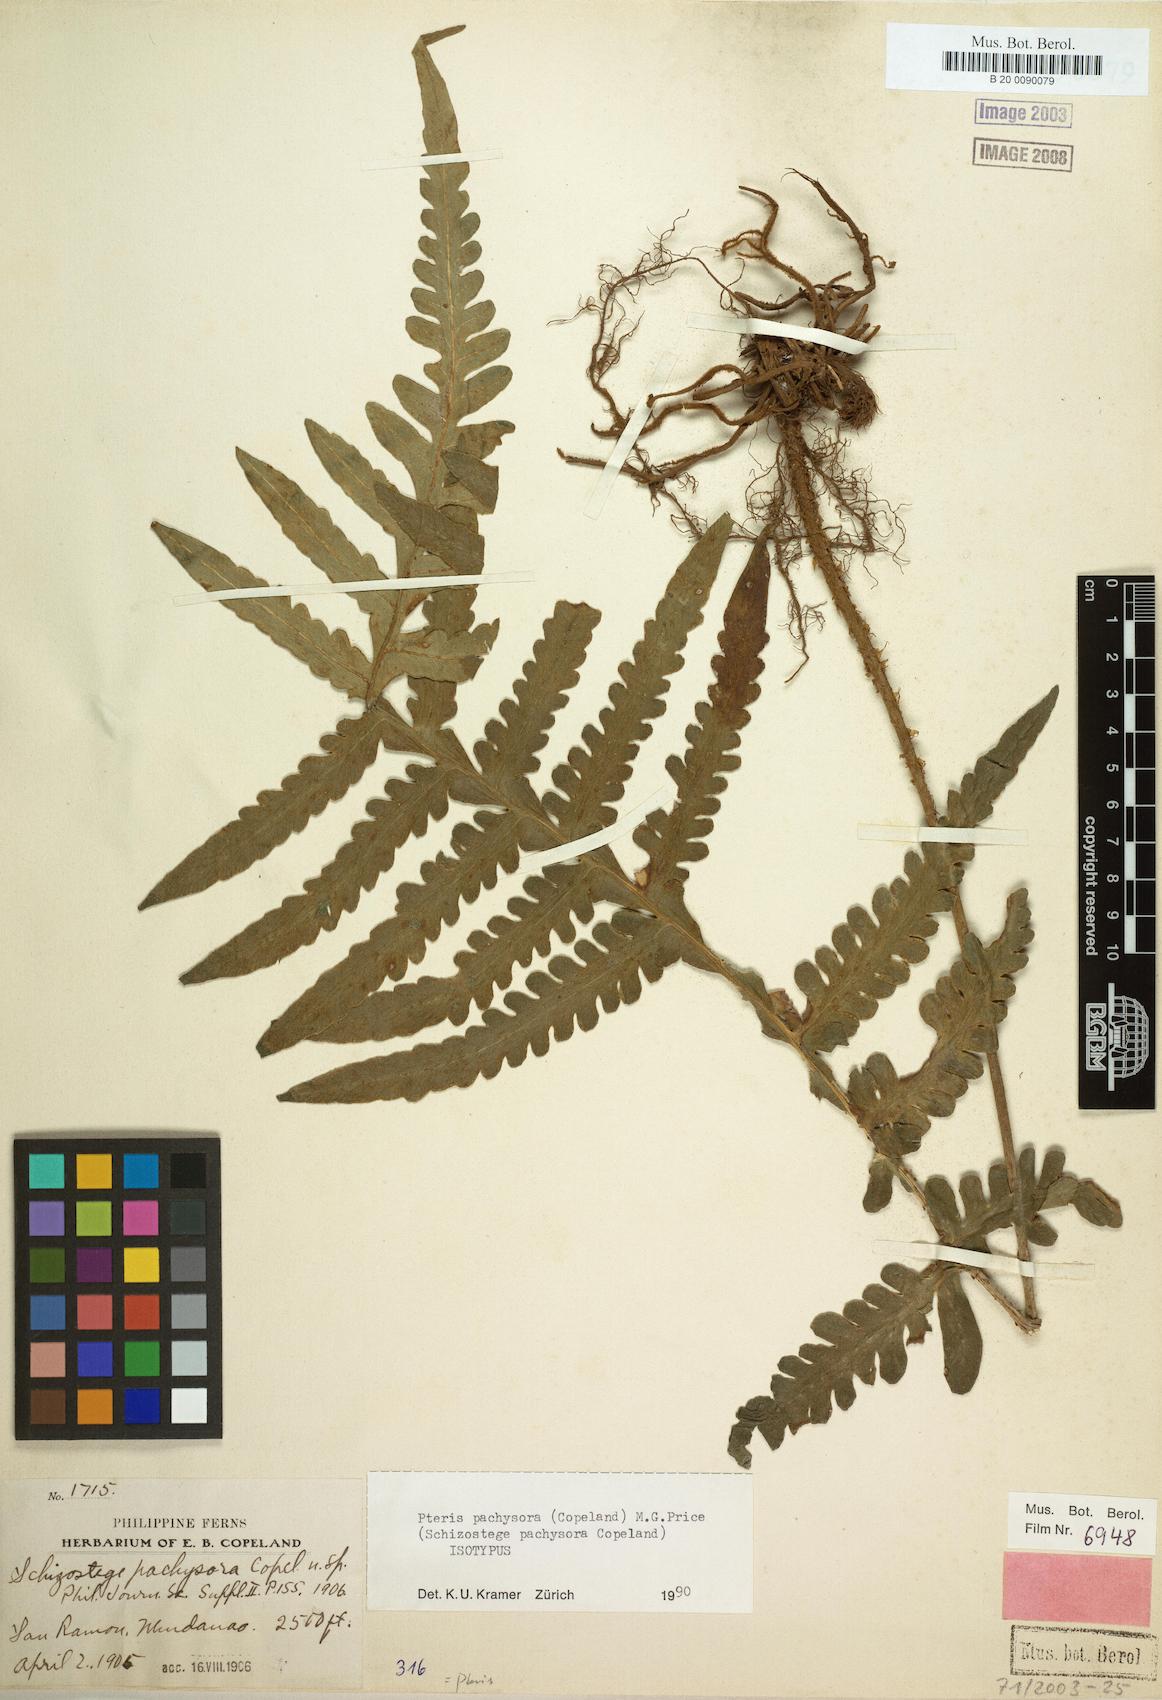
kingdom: Plantae
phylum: Tracheophyta
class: Polypodiopsida
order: Polypodiales
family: Pteridaceae
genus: Pteris
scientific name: Pteris pachysora
